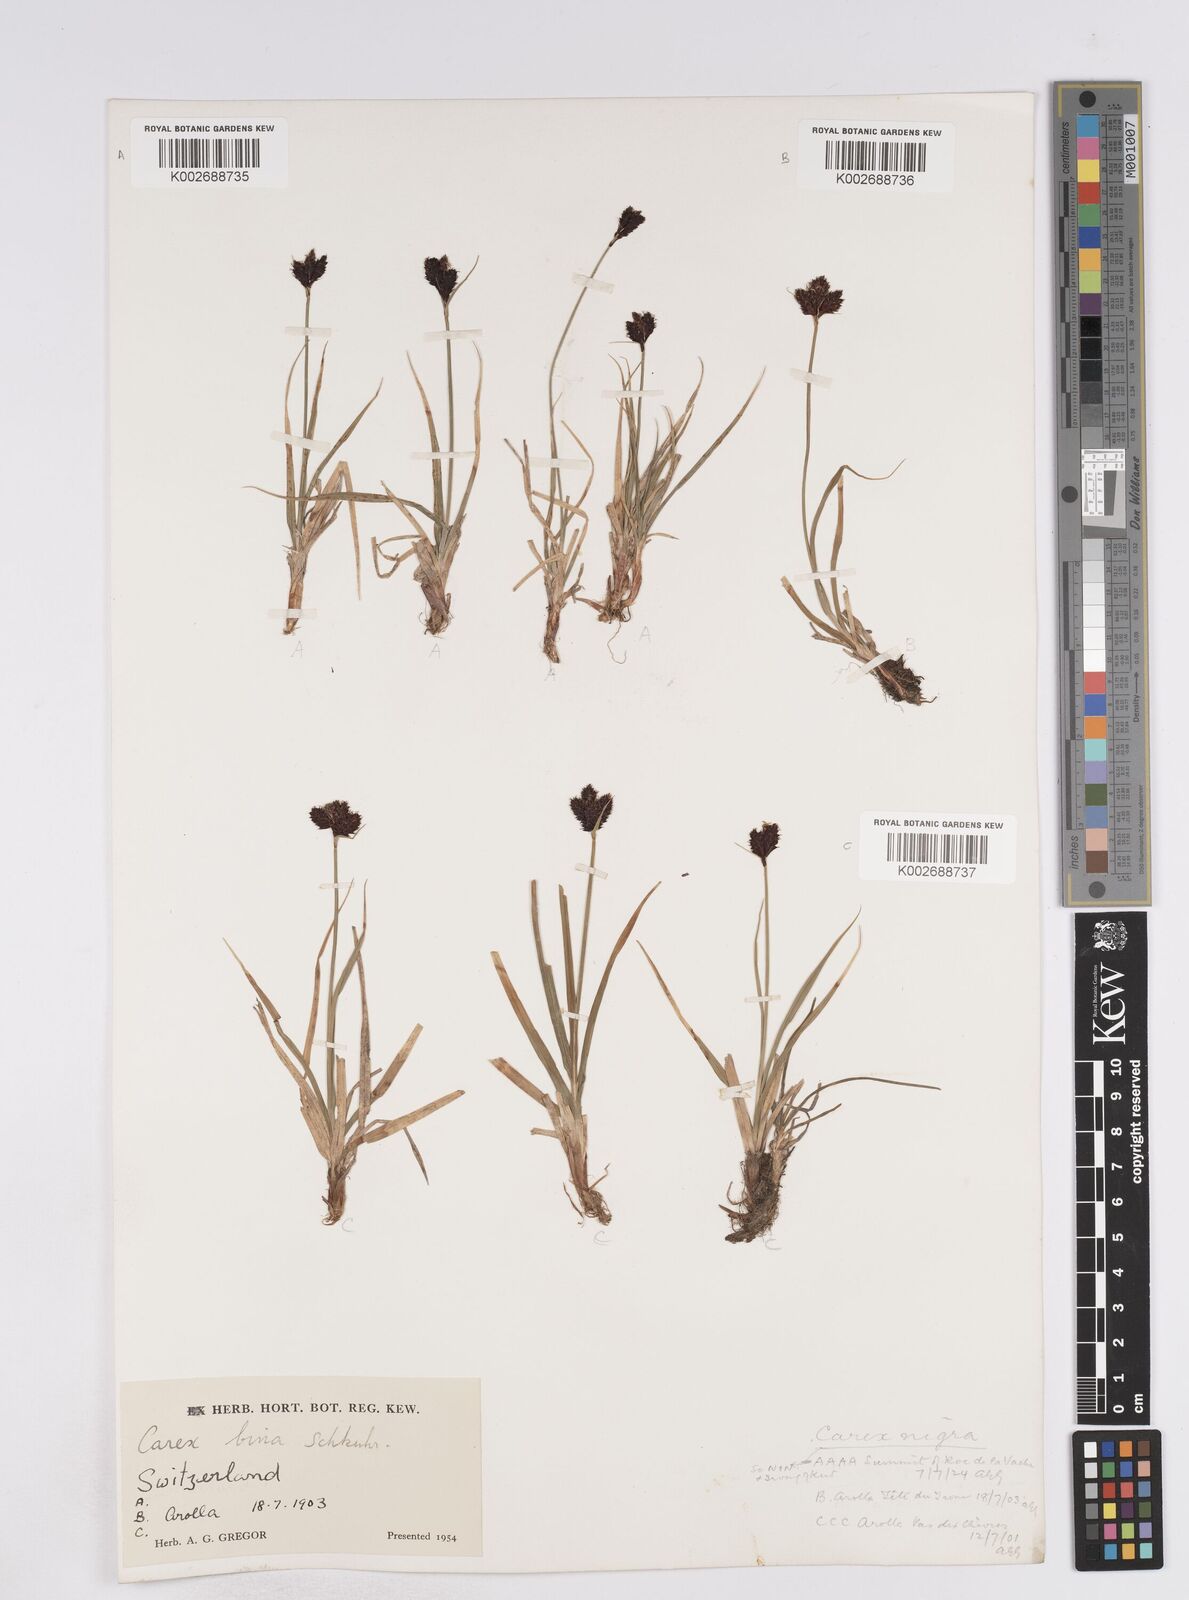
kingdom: Plantae
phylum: Tracheophyta
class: Liliopsida
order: Poales
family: Cyperaceae
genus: Carex
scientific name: Carex parviflora
